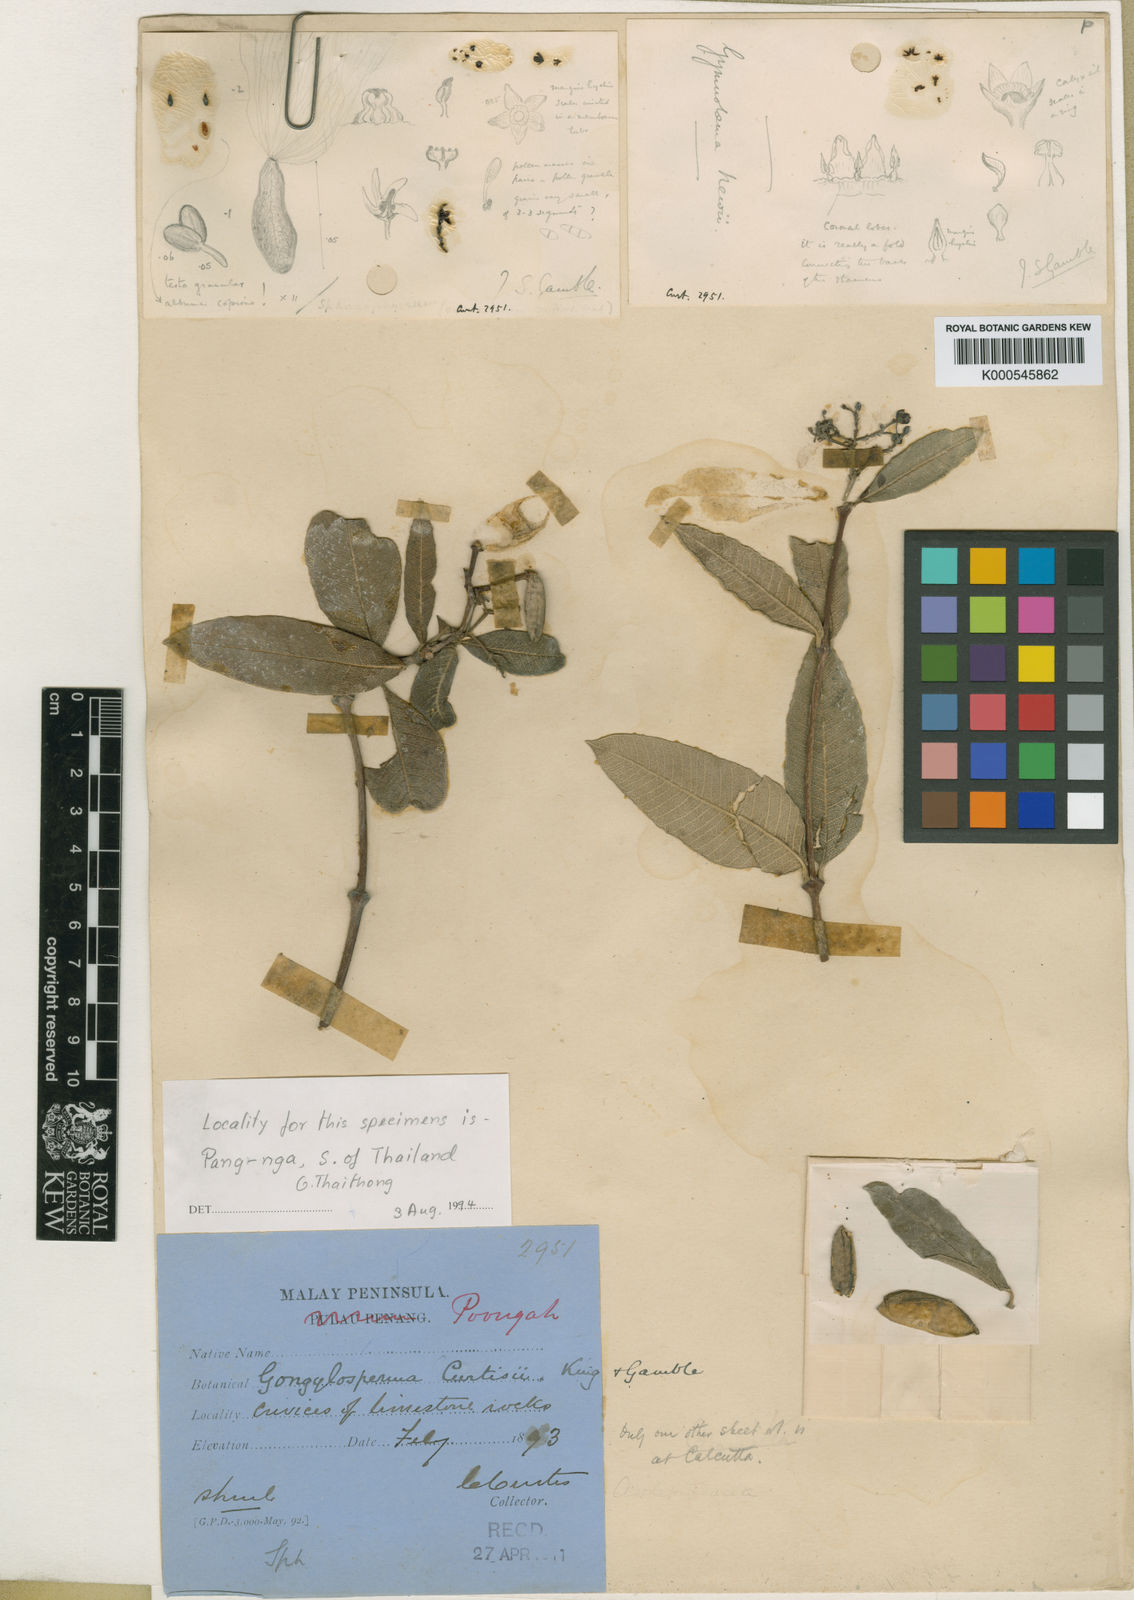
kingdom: Plantae
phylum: Tracheophyta
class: Magnoliopsida
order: Gentianales
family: Apocynaceae
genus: Streptocaulon
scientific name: Streptocaulon curtisii
